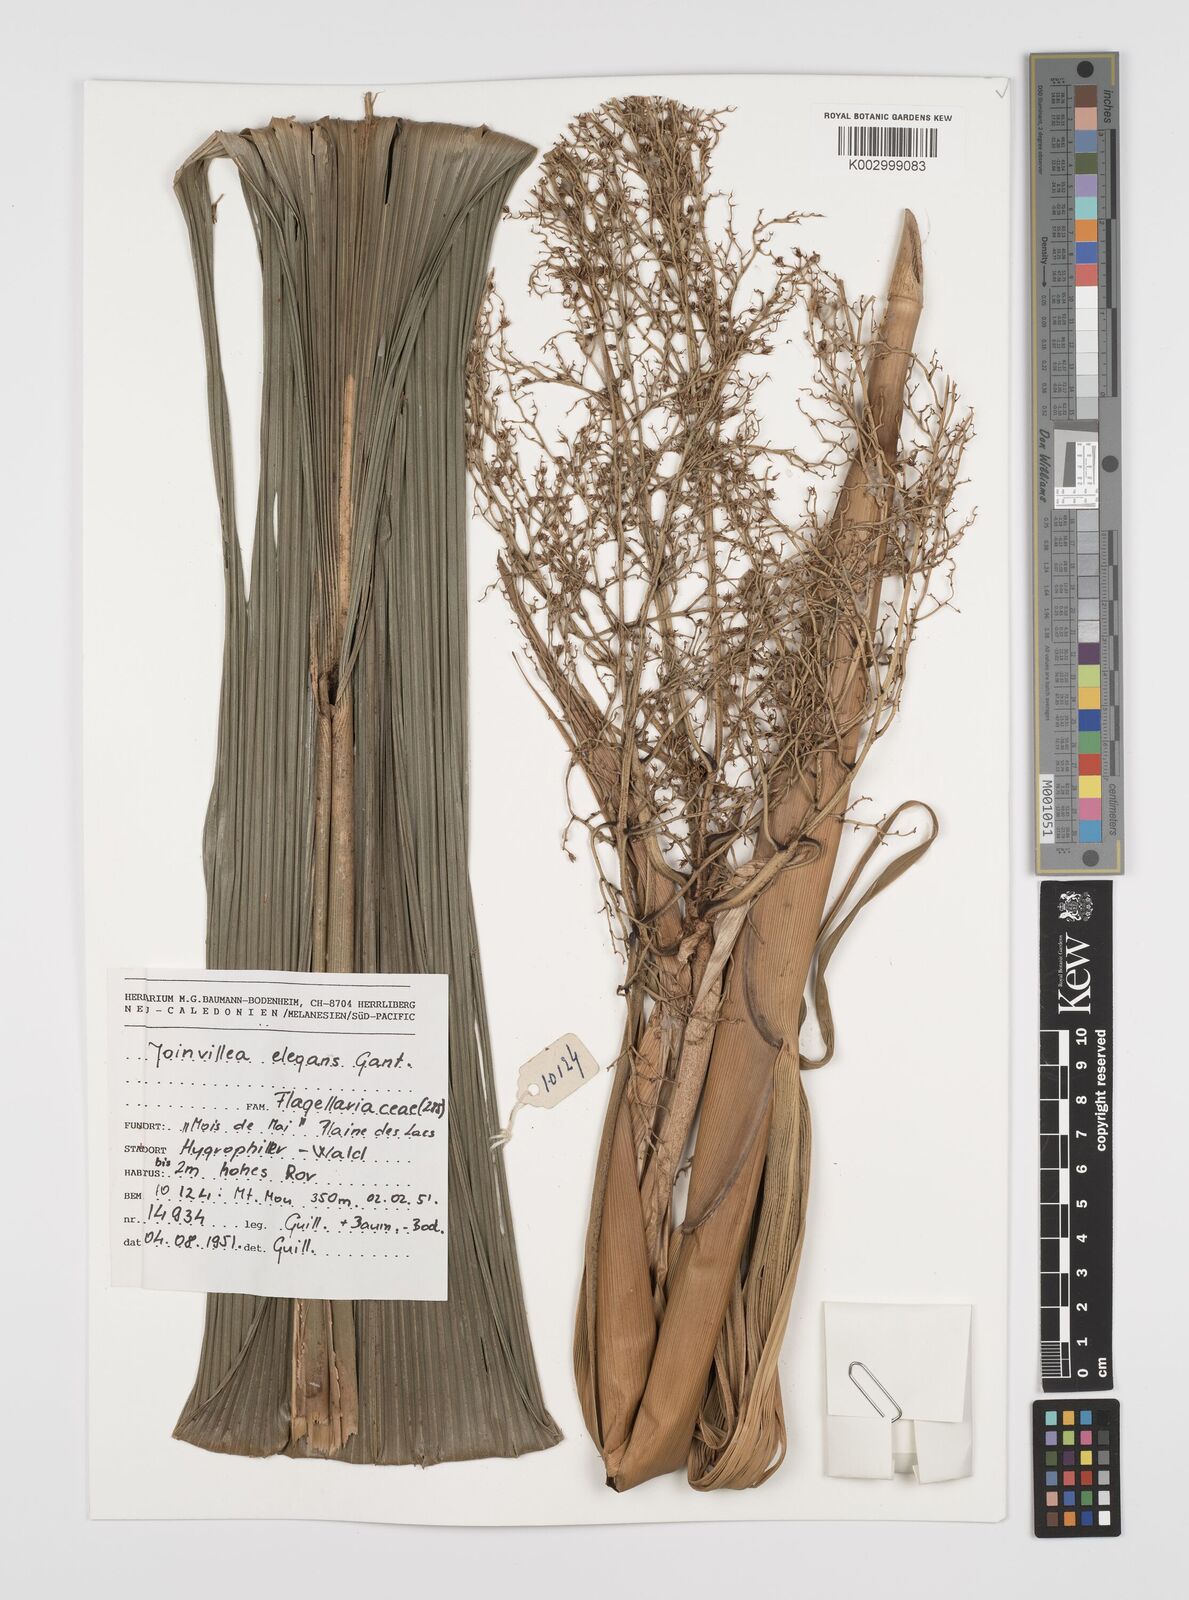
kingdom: Plantae
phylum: Tracheophyta
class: Liliopsida
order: Poales
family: Joinvilleaceae
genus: Joinvillea
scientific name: Joinvillea plicata
